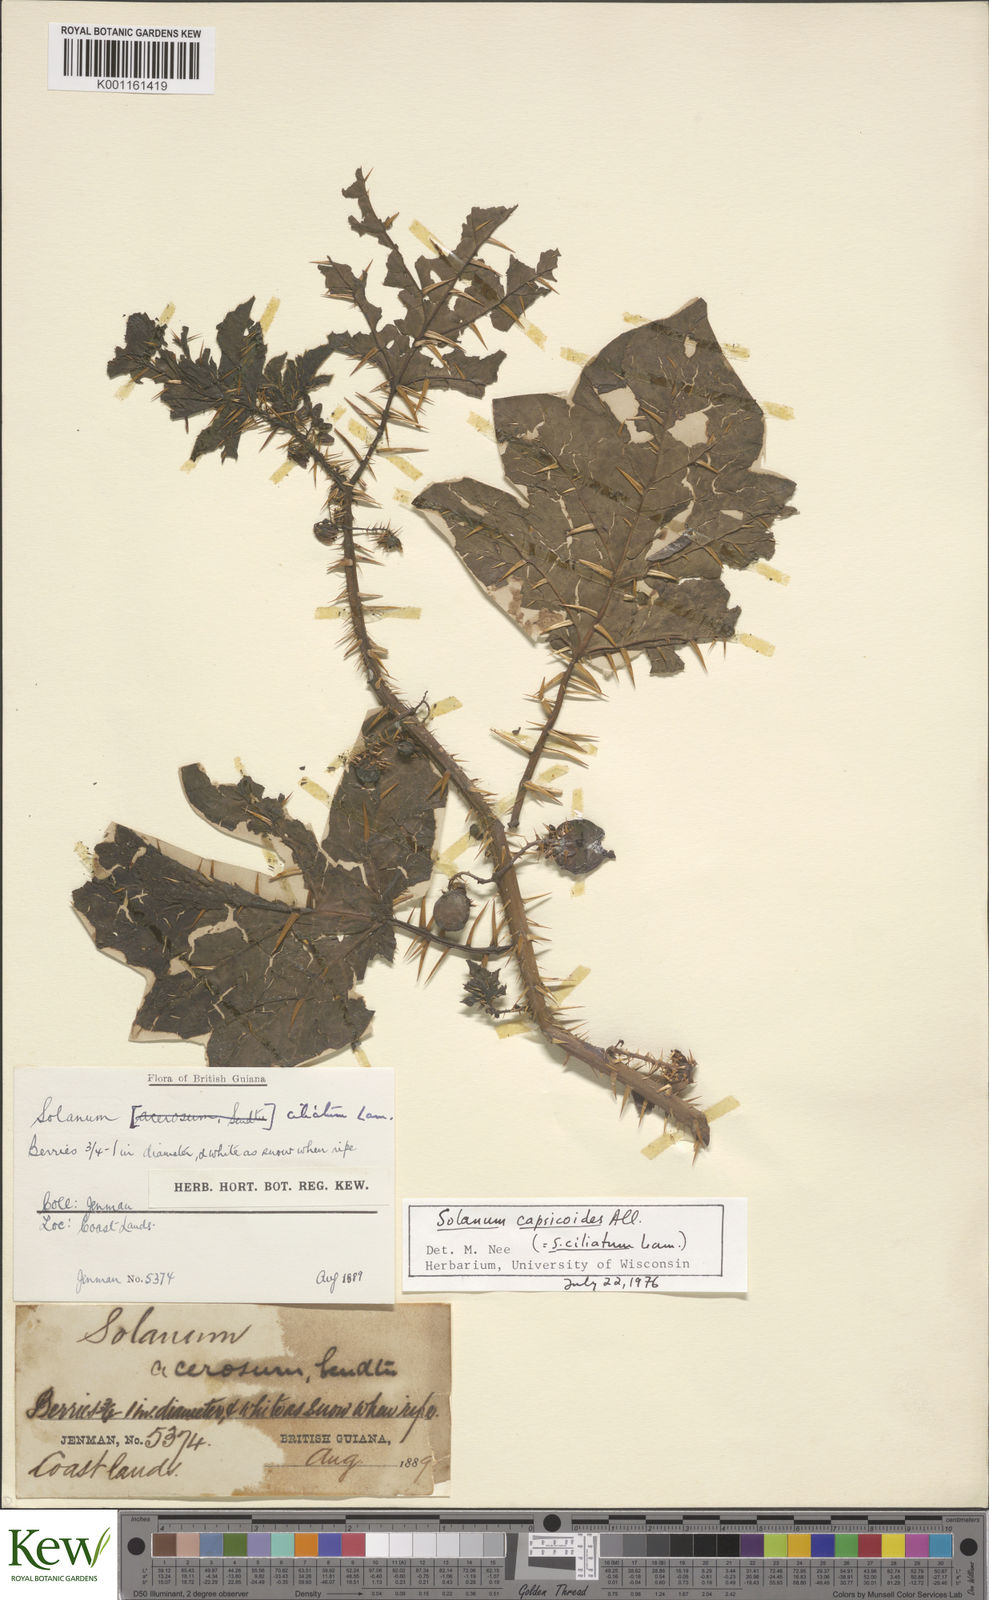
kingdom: Plantae
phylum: Tracheophyta
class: Magnoliopsida
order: Solanales
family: Solanaceae
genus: Solanum
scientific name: Solanum capsicoides
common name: Cockroach berry
